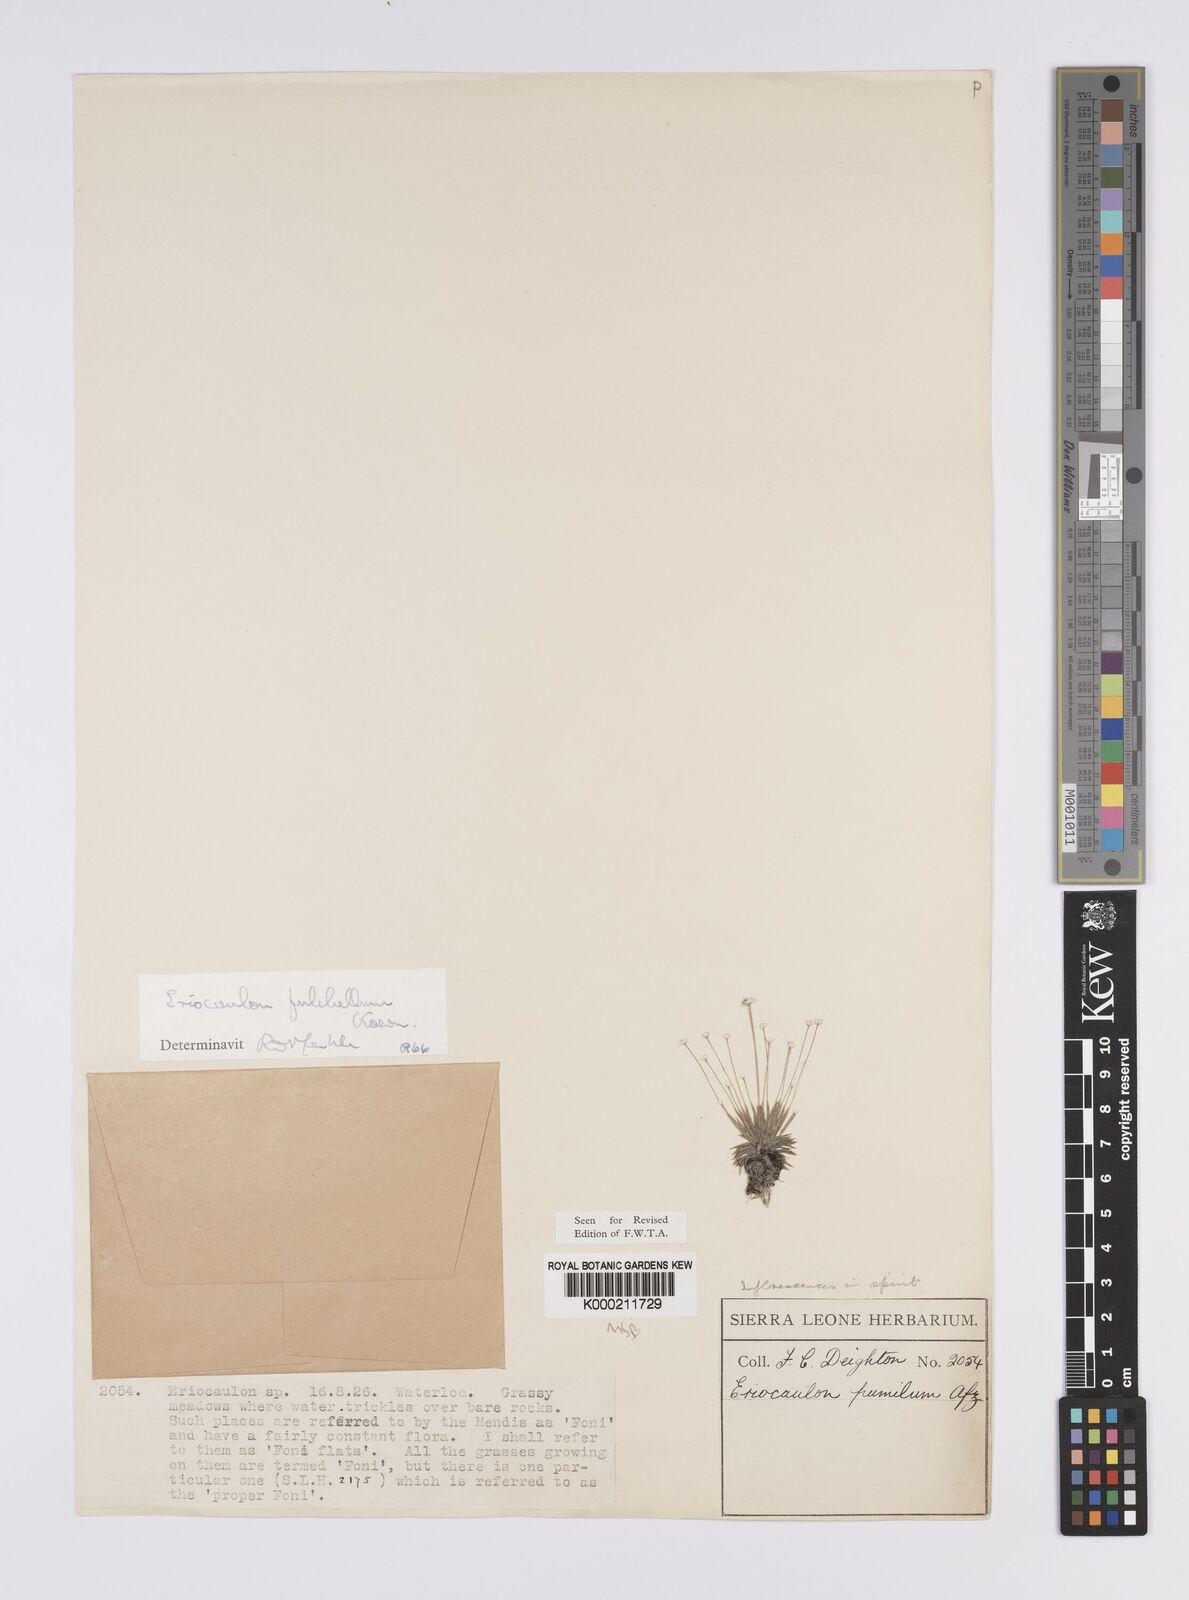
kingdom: Plantae
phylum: Tracheophyta
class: Liliopsida
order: Poales
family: Eriocaulaceae
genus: Eriocaulon
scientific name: Eriocaulon
